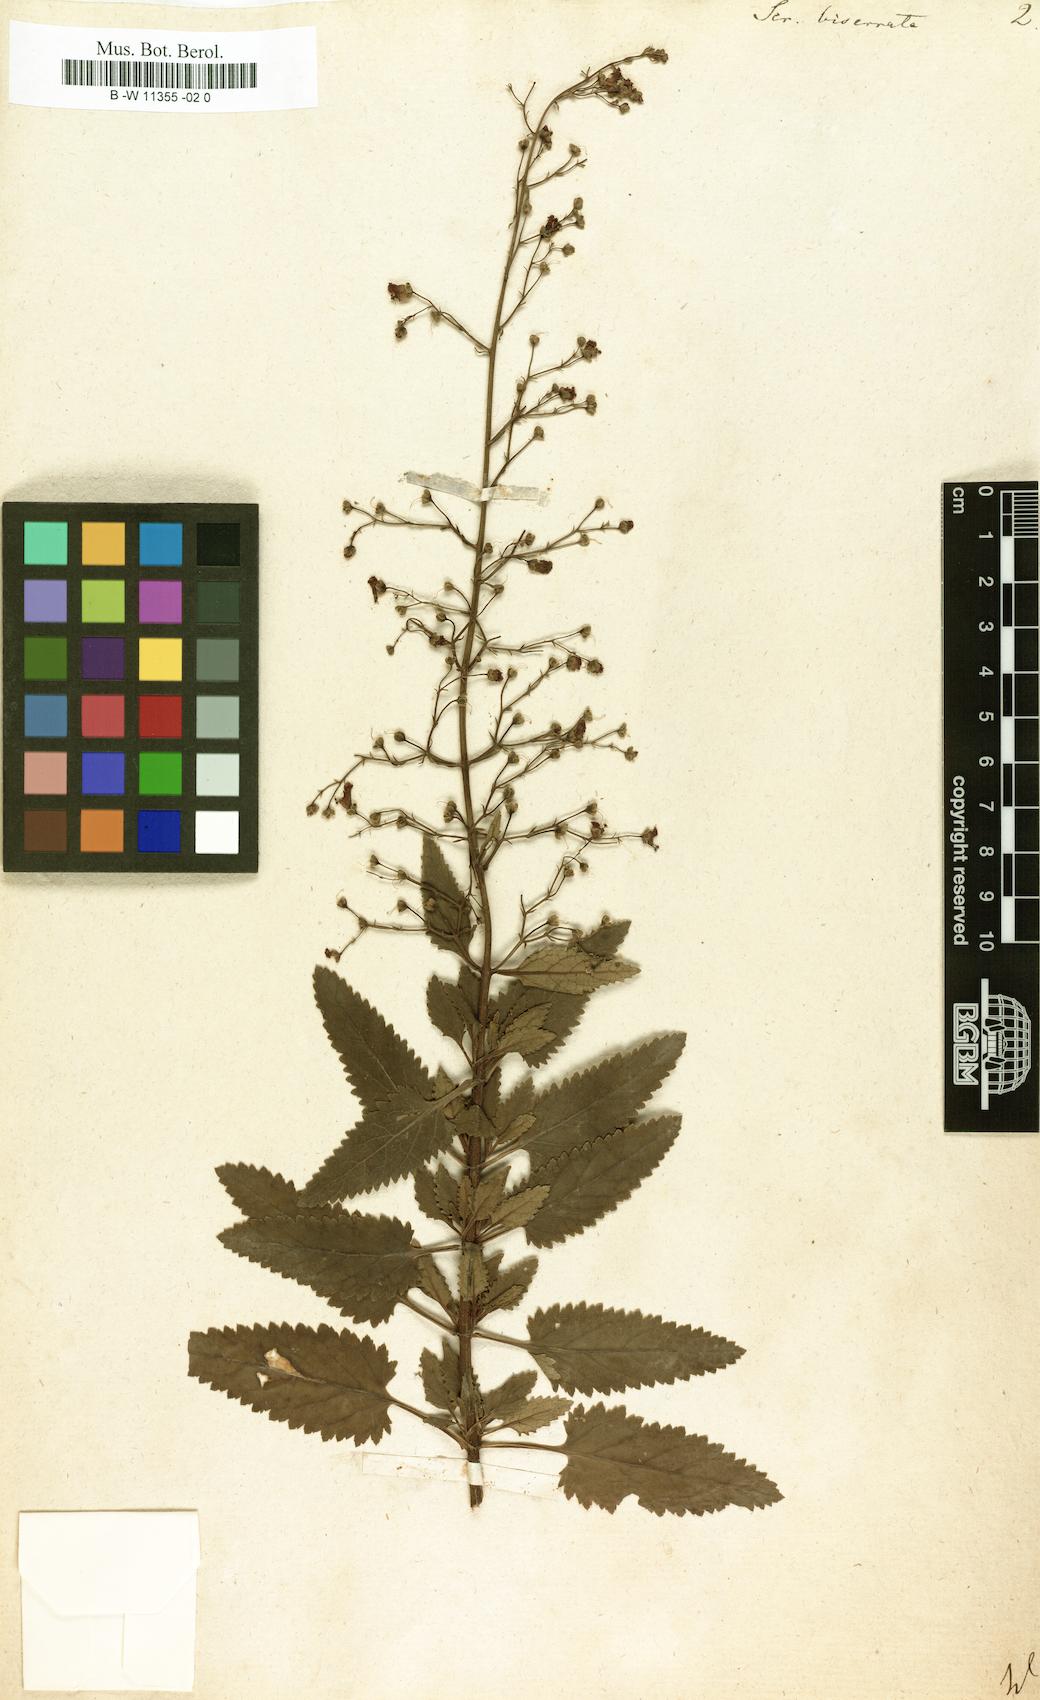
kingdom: Plantae
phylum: Tracheophyta
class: Magnoliopsida
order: Lamiales
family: Scrophulariaceae
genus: Scrophularia
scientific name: Scrophularia scorodonia
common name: Balm-leaved figwort
